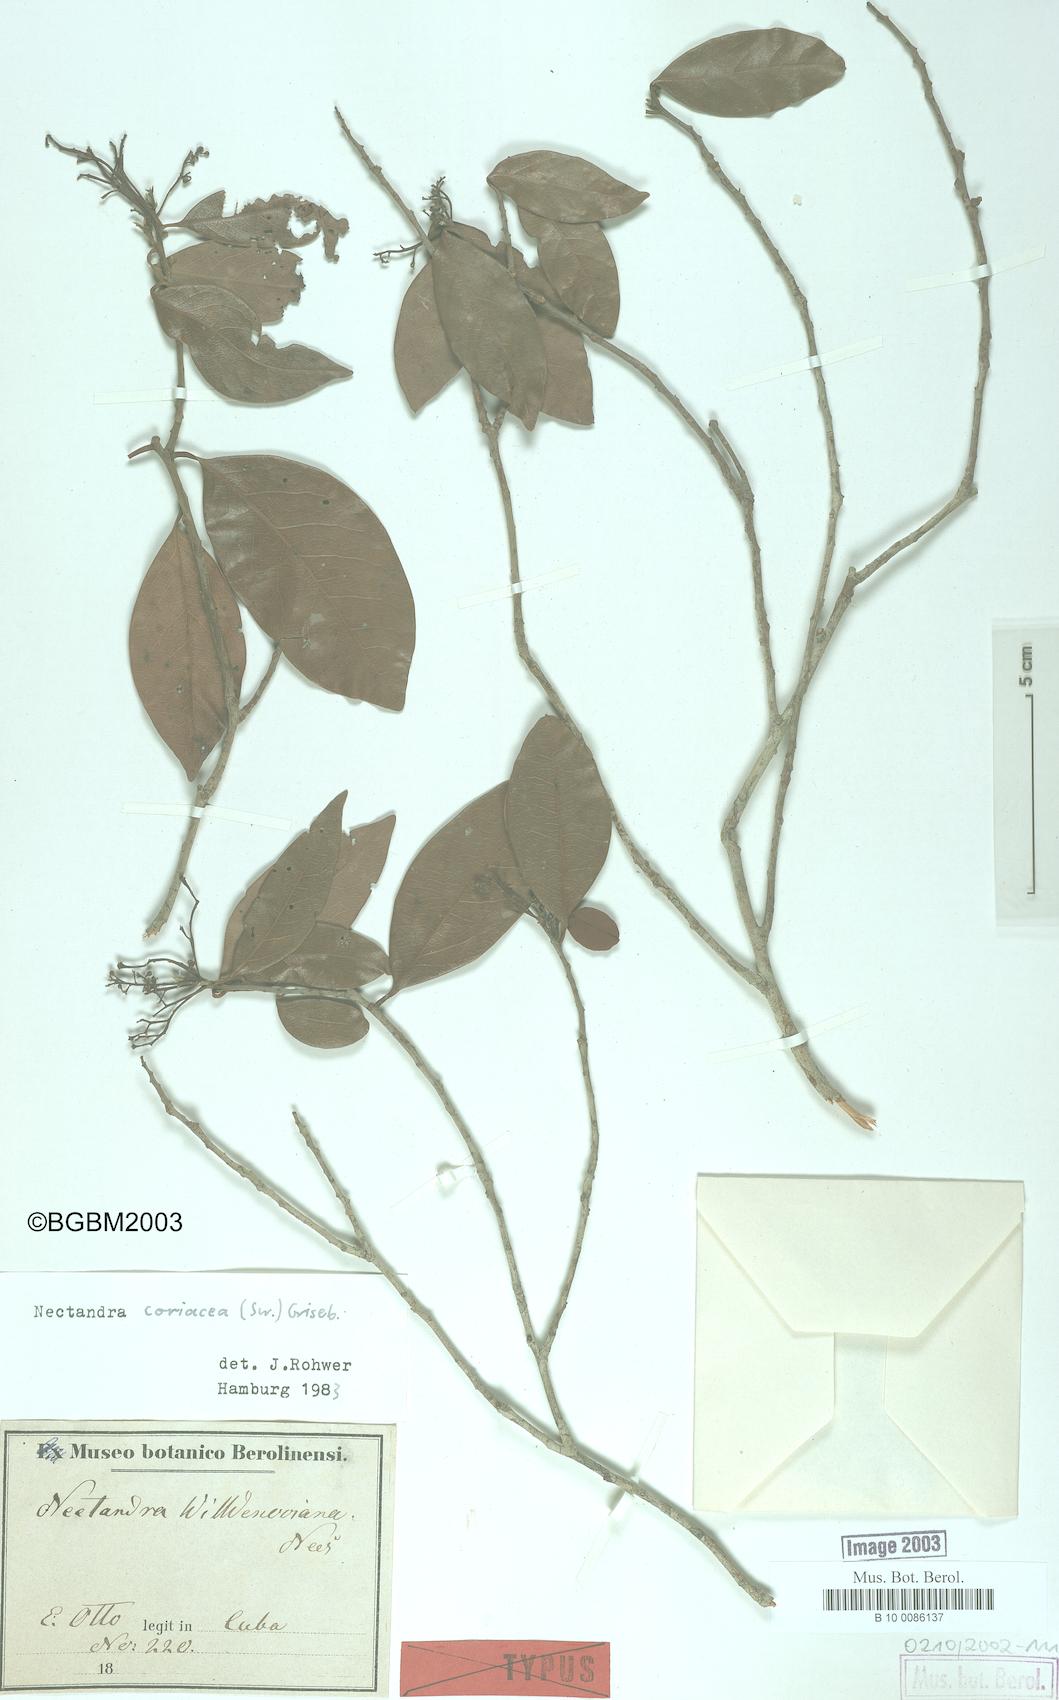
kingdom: Plantae
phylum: Tracheophyta
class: Magnoliopsida
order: Laurales
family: Lauraceae
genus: Damburneya
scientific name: Damburneya coriacea
